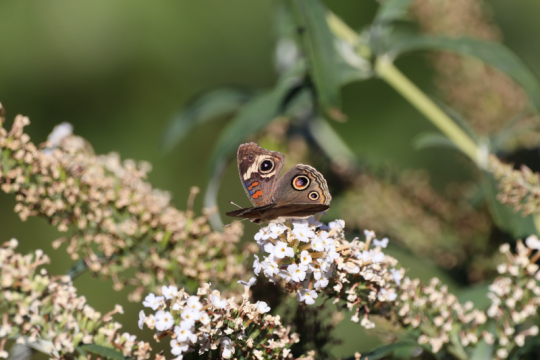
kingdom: Animalia
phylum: Arthropoda
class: Insecta
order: Lepidoptera
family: Nymphalidae
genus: Junonia
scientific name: Junonia coenia
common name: Common Buckeye
